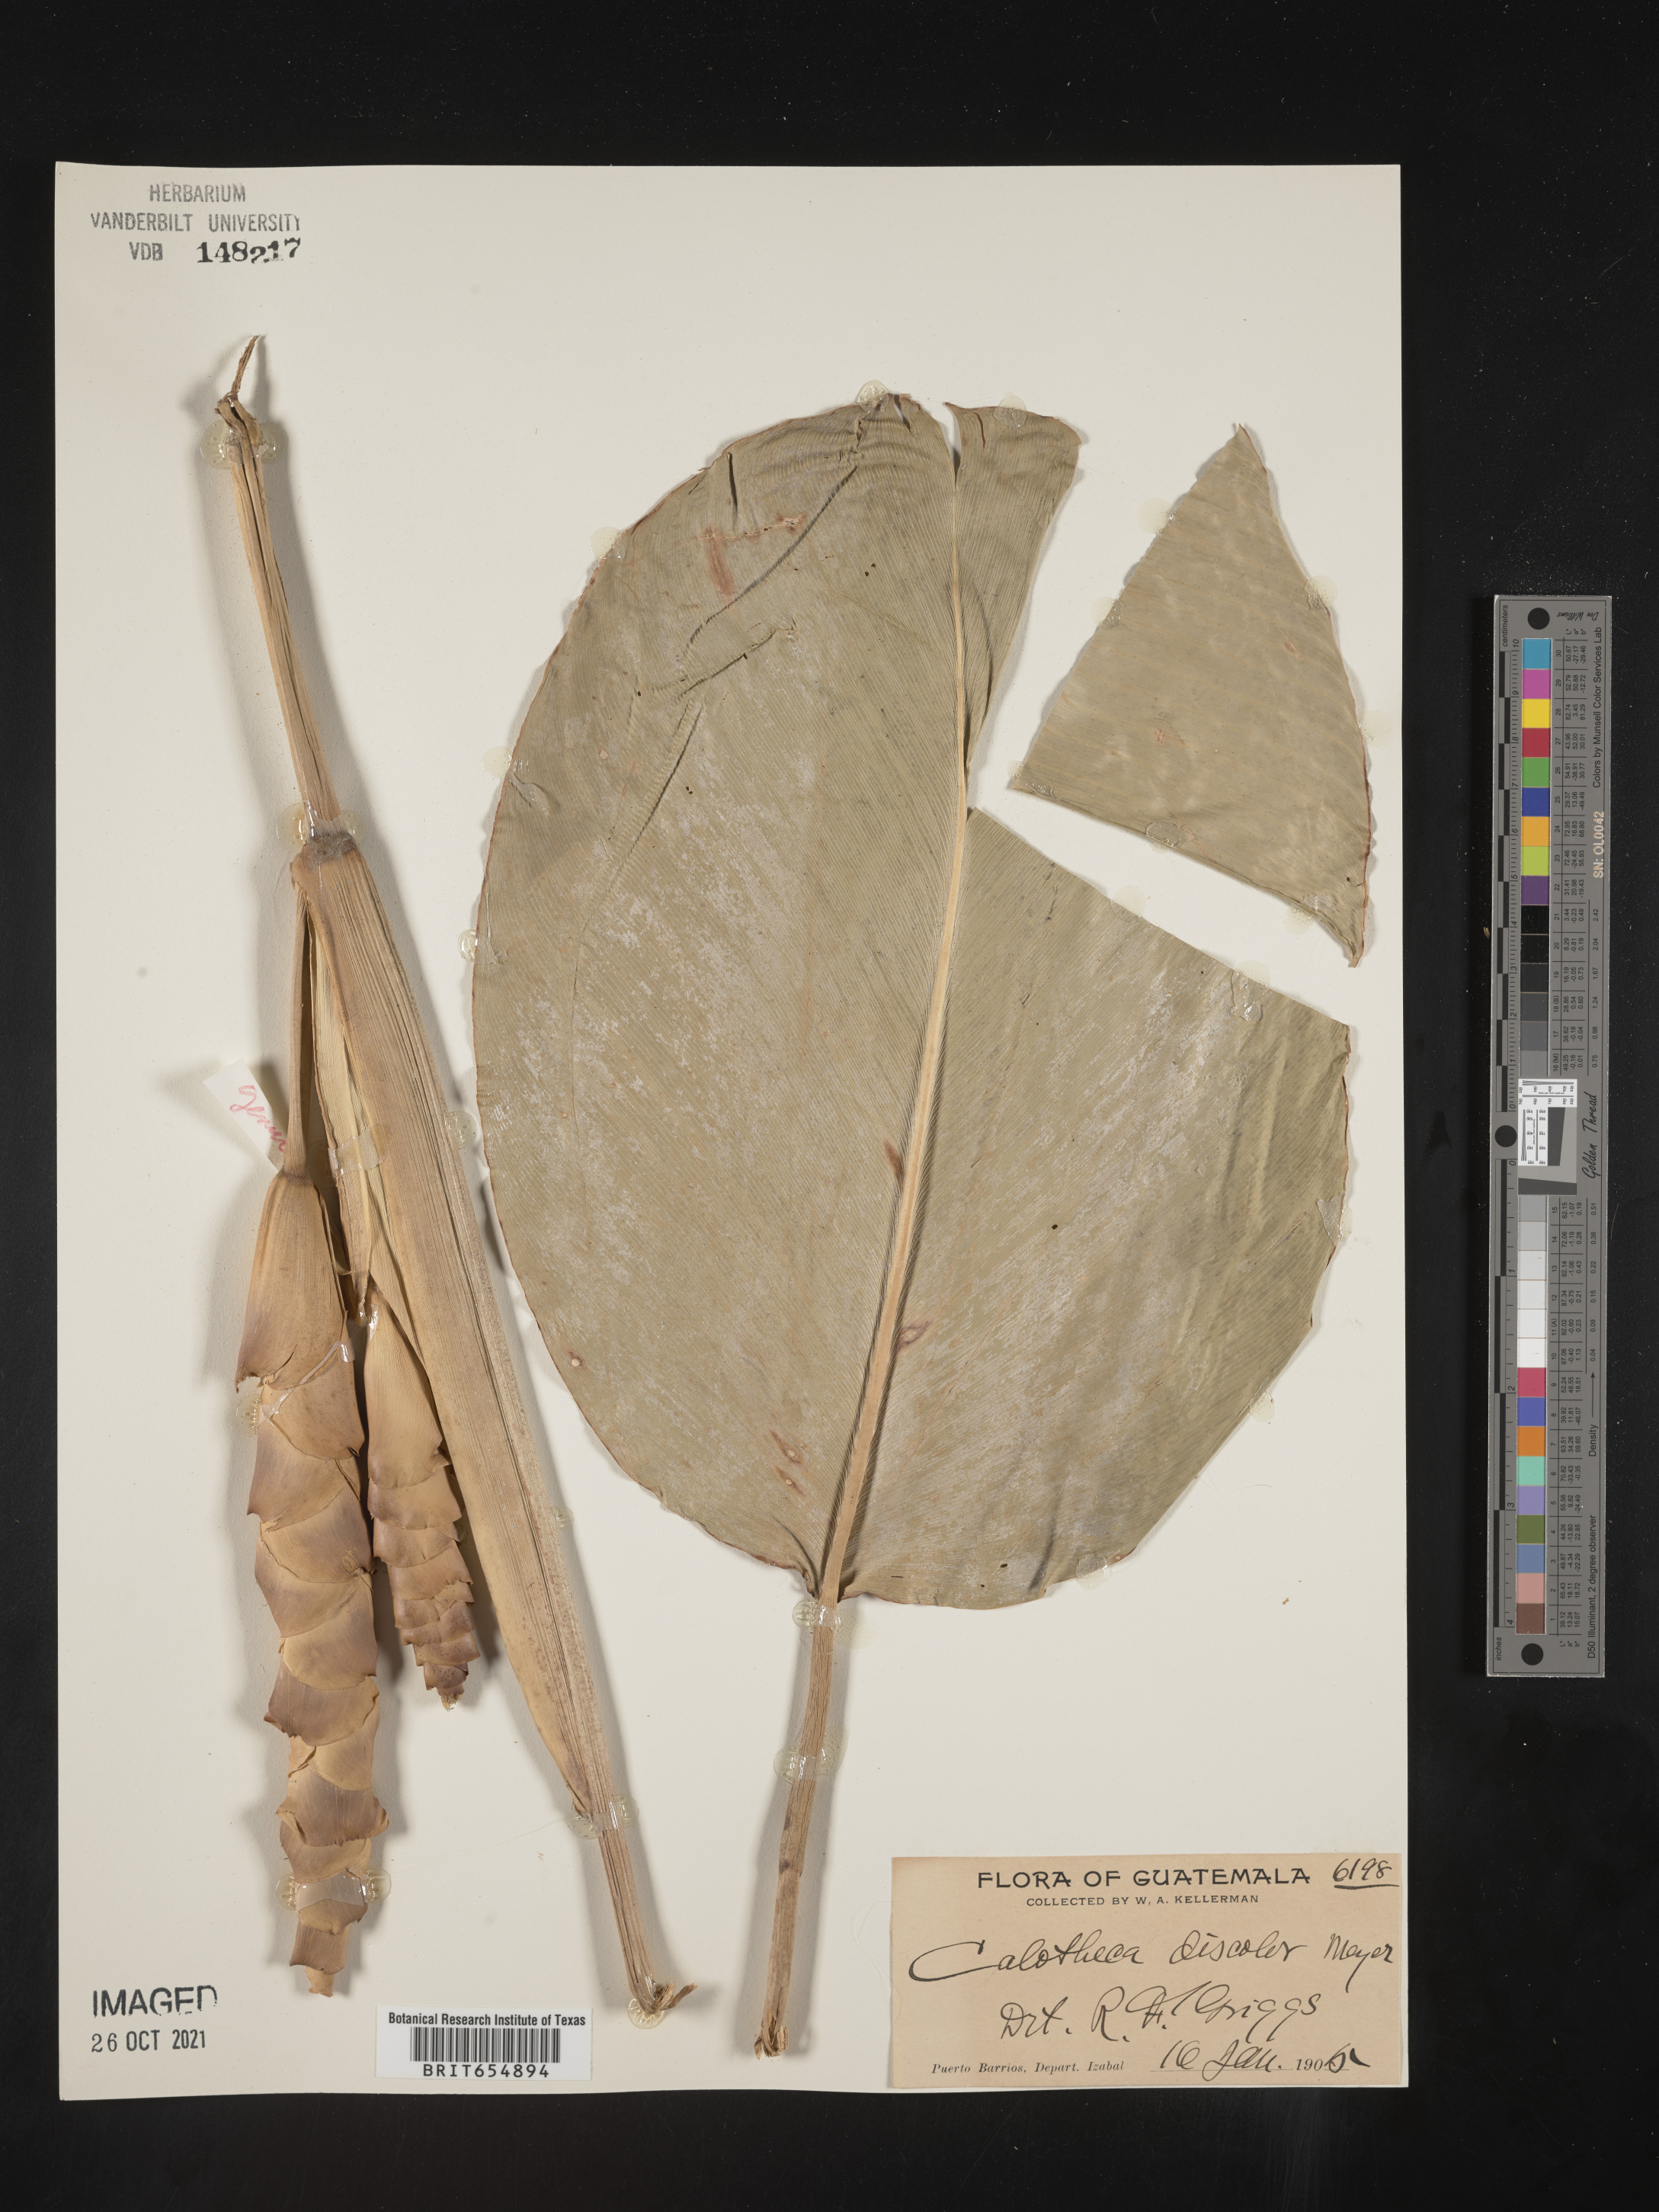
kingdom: Plantae
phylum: Tracheophyta
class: Liliopsida
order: Poales
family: Poaceae
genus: Calotheca
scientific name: Calotheca
